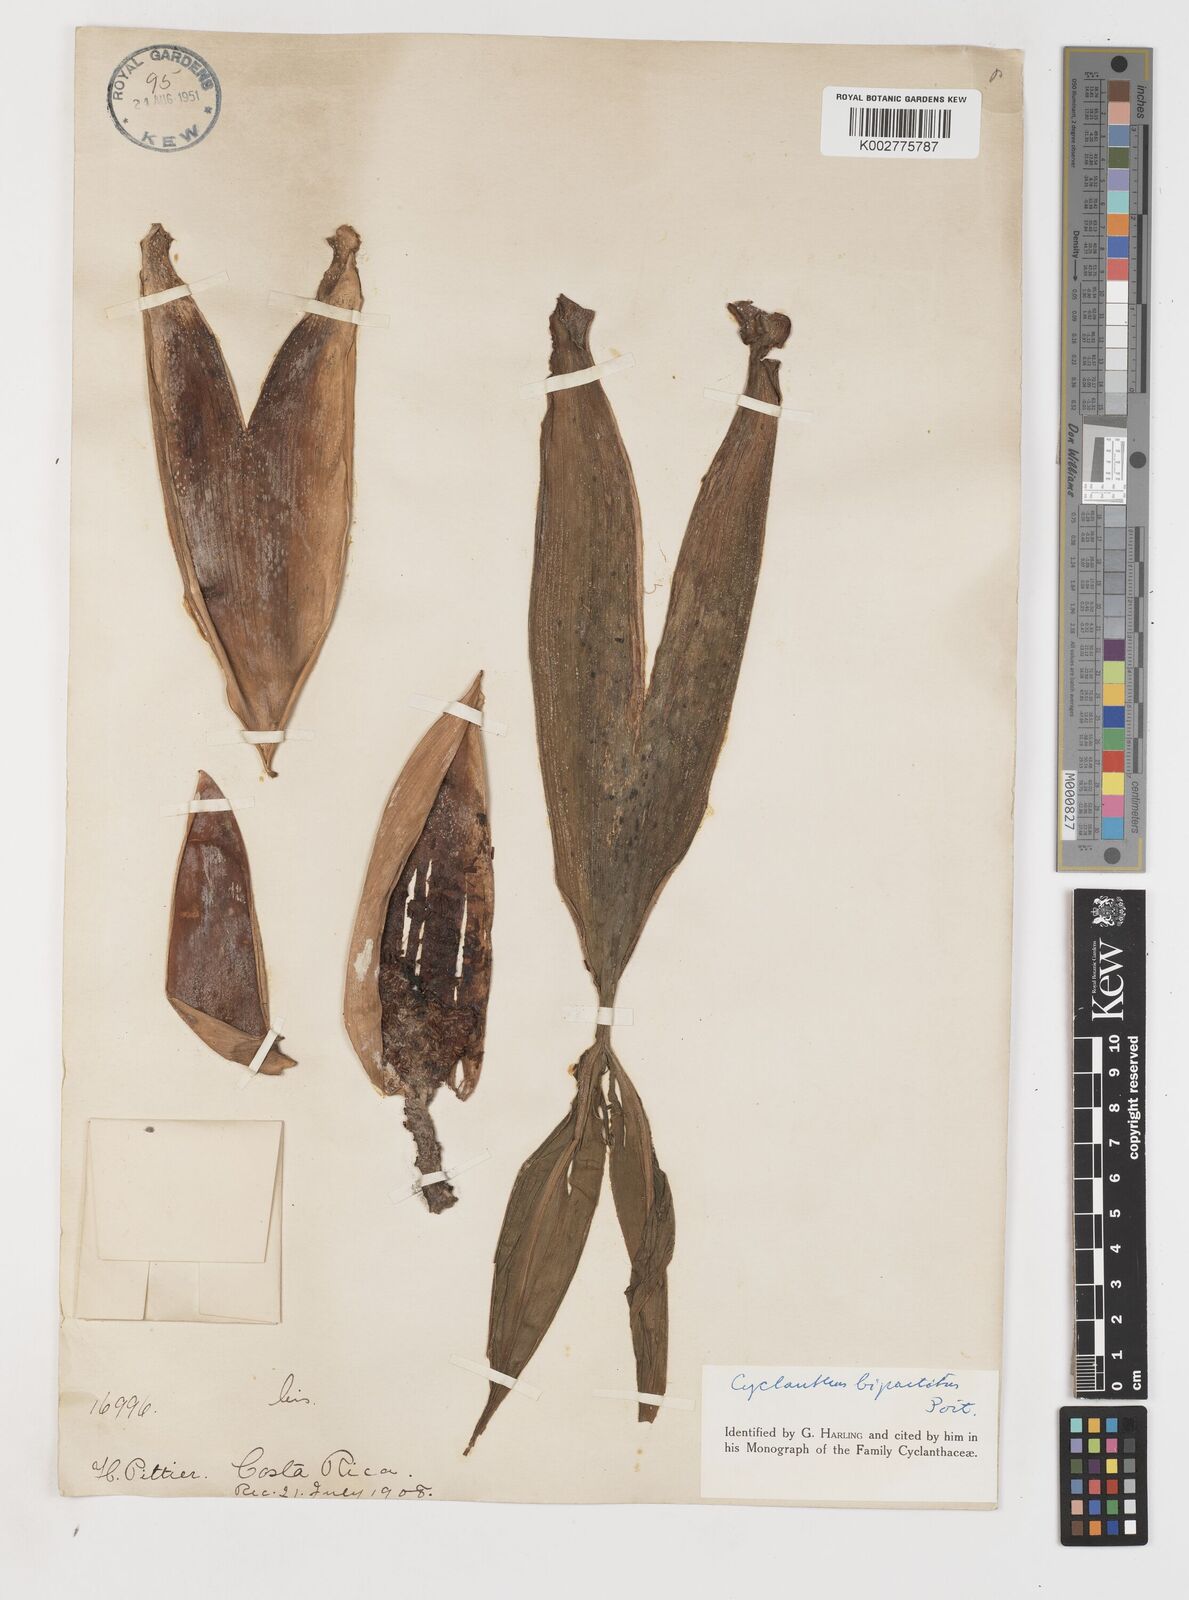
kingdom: Plantae
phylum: Tracheophyta
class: Liliopsida
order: Pandanales
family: Cyclanthaceae
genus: Cyclanthus
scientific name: Cyclanthus bipartitus
